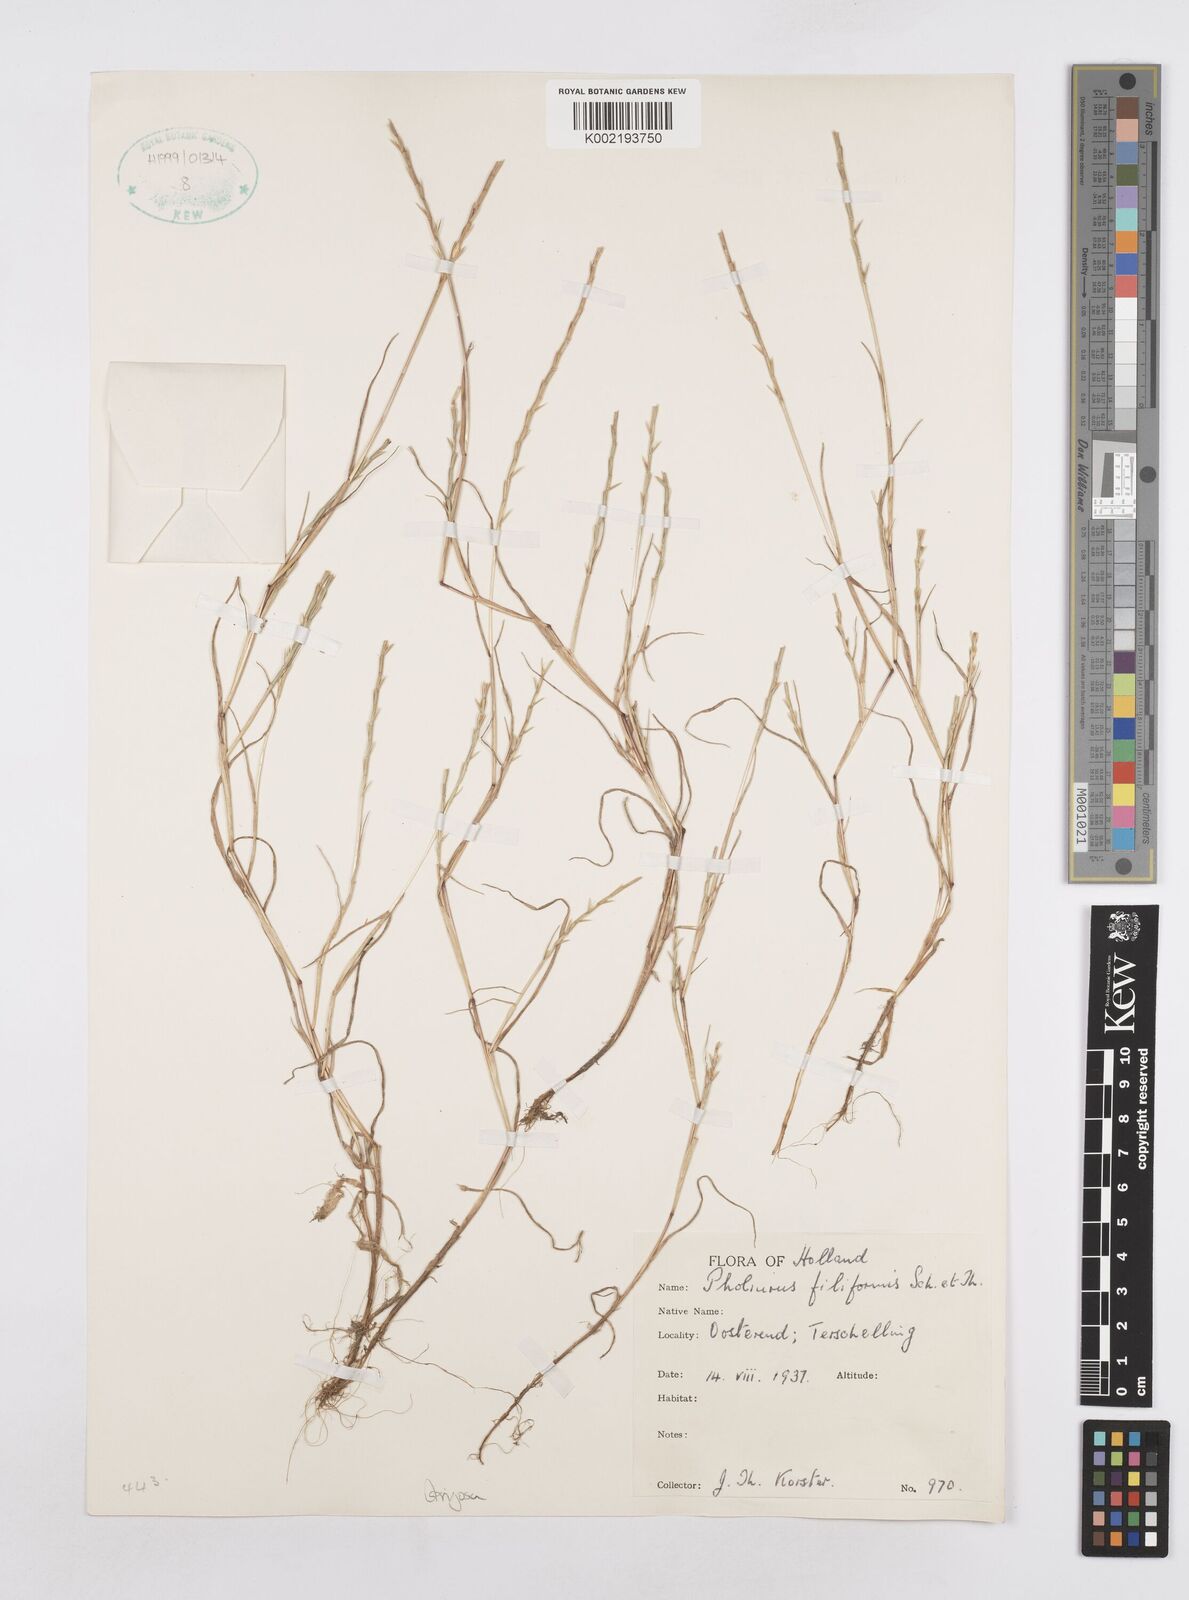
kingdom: Plantae
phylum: Tracheophyta
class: Liliopsida
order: Poales
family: Poaceae
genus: Parapholis
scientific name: Parapholis strigosa
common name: Hard-grass
